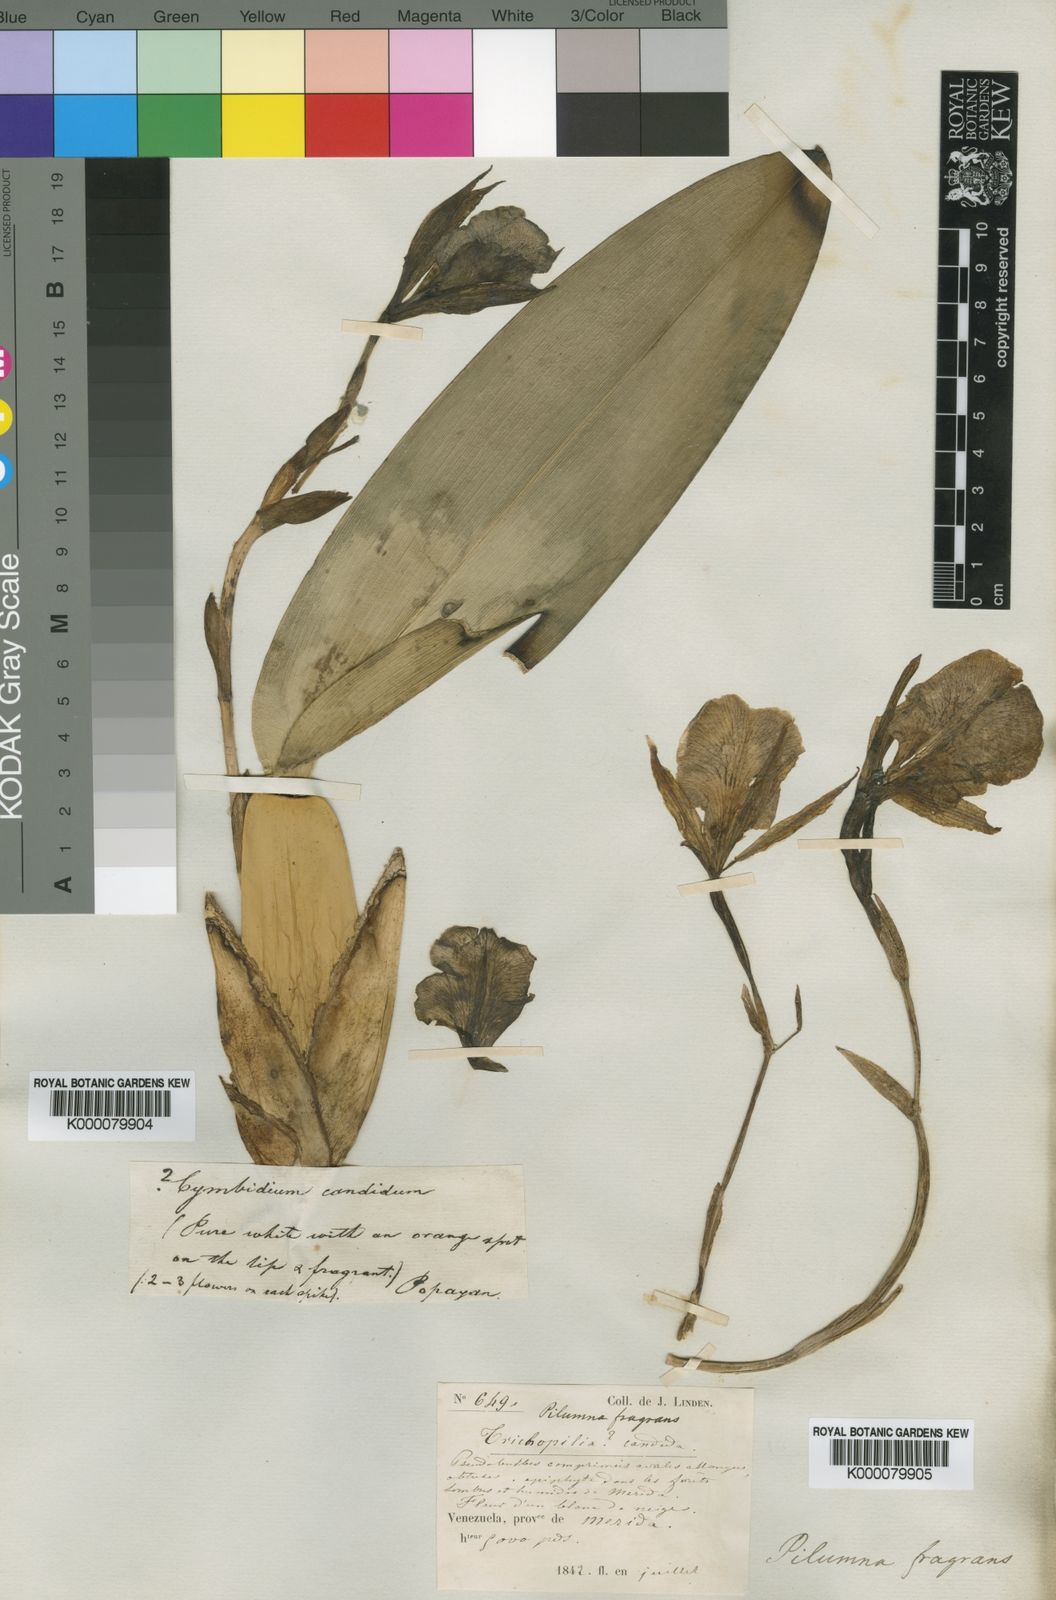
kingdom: Plantae
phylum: Tracheophyta
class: Liliopsida
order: Asparagales
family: Orchidaceae
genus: Trichopilia
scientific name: Trichopilia fragrans
